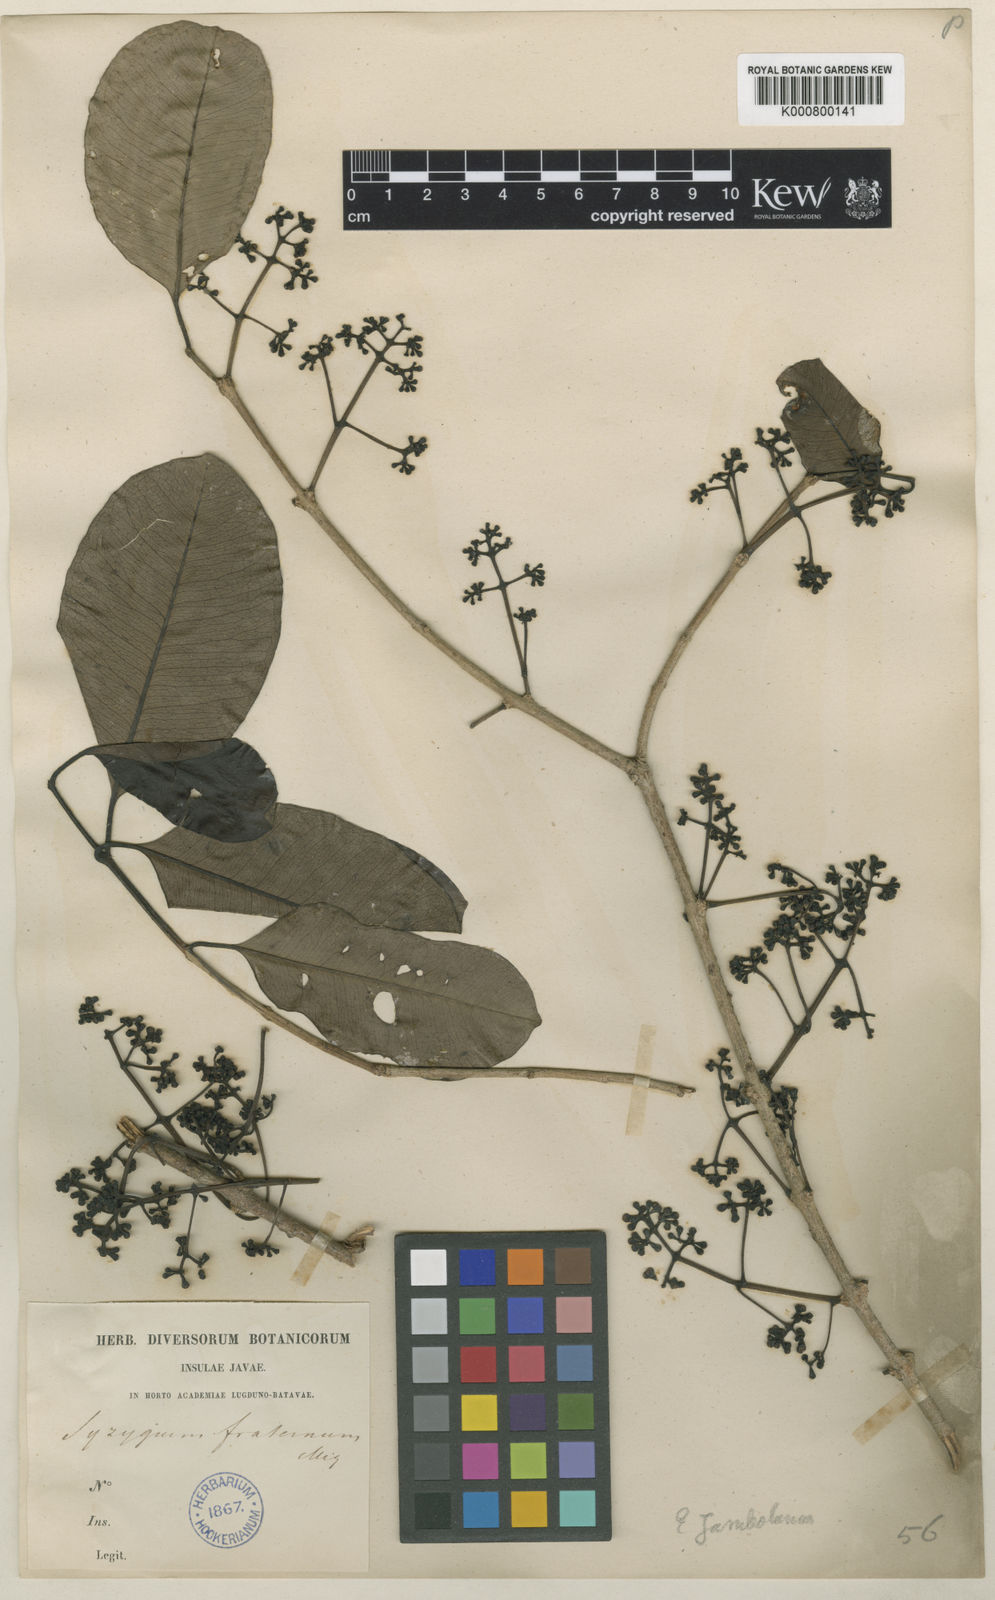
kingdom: Plantae
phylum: Tracheophyta
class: Magnoliopsida
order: Myrtales
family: Myrtaceae
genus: Syzygium
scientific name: Syzygium cumini
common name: Java plum
